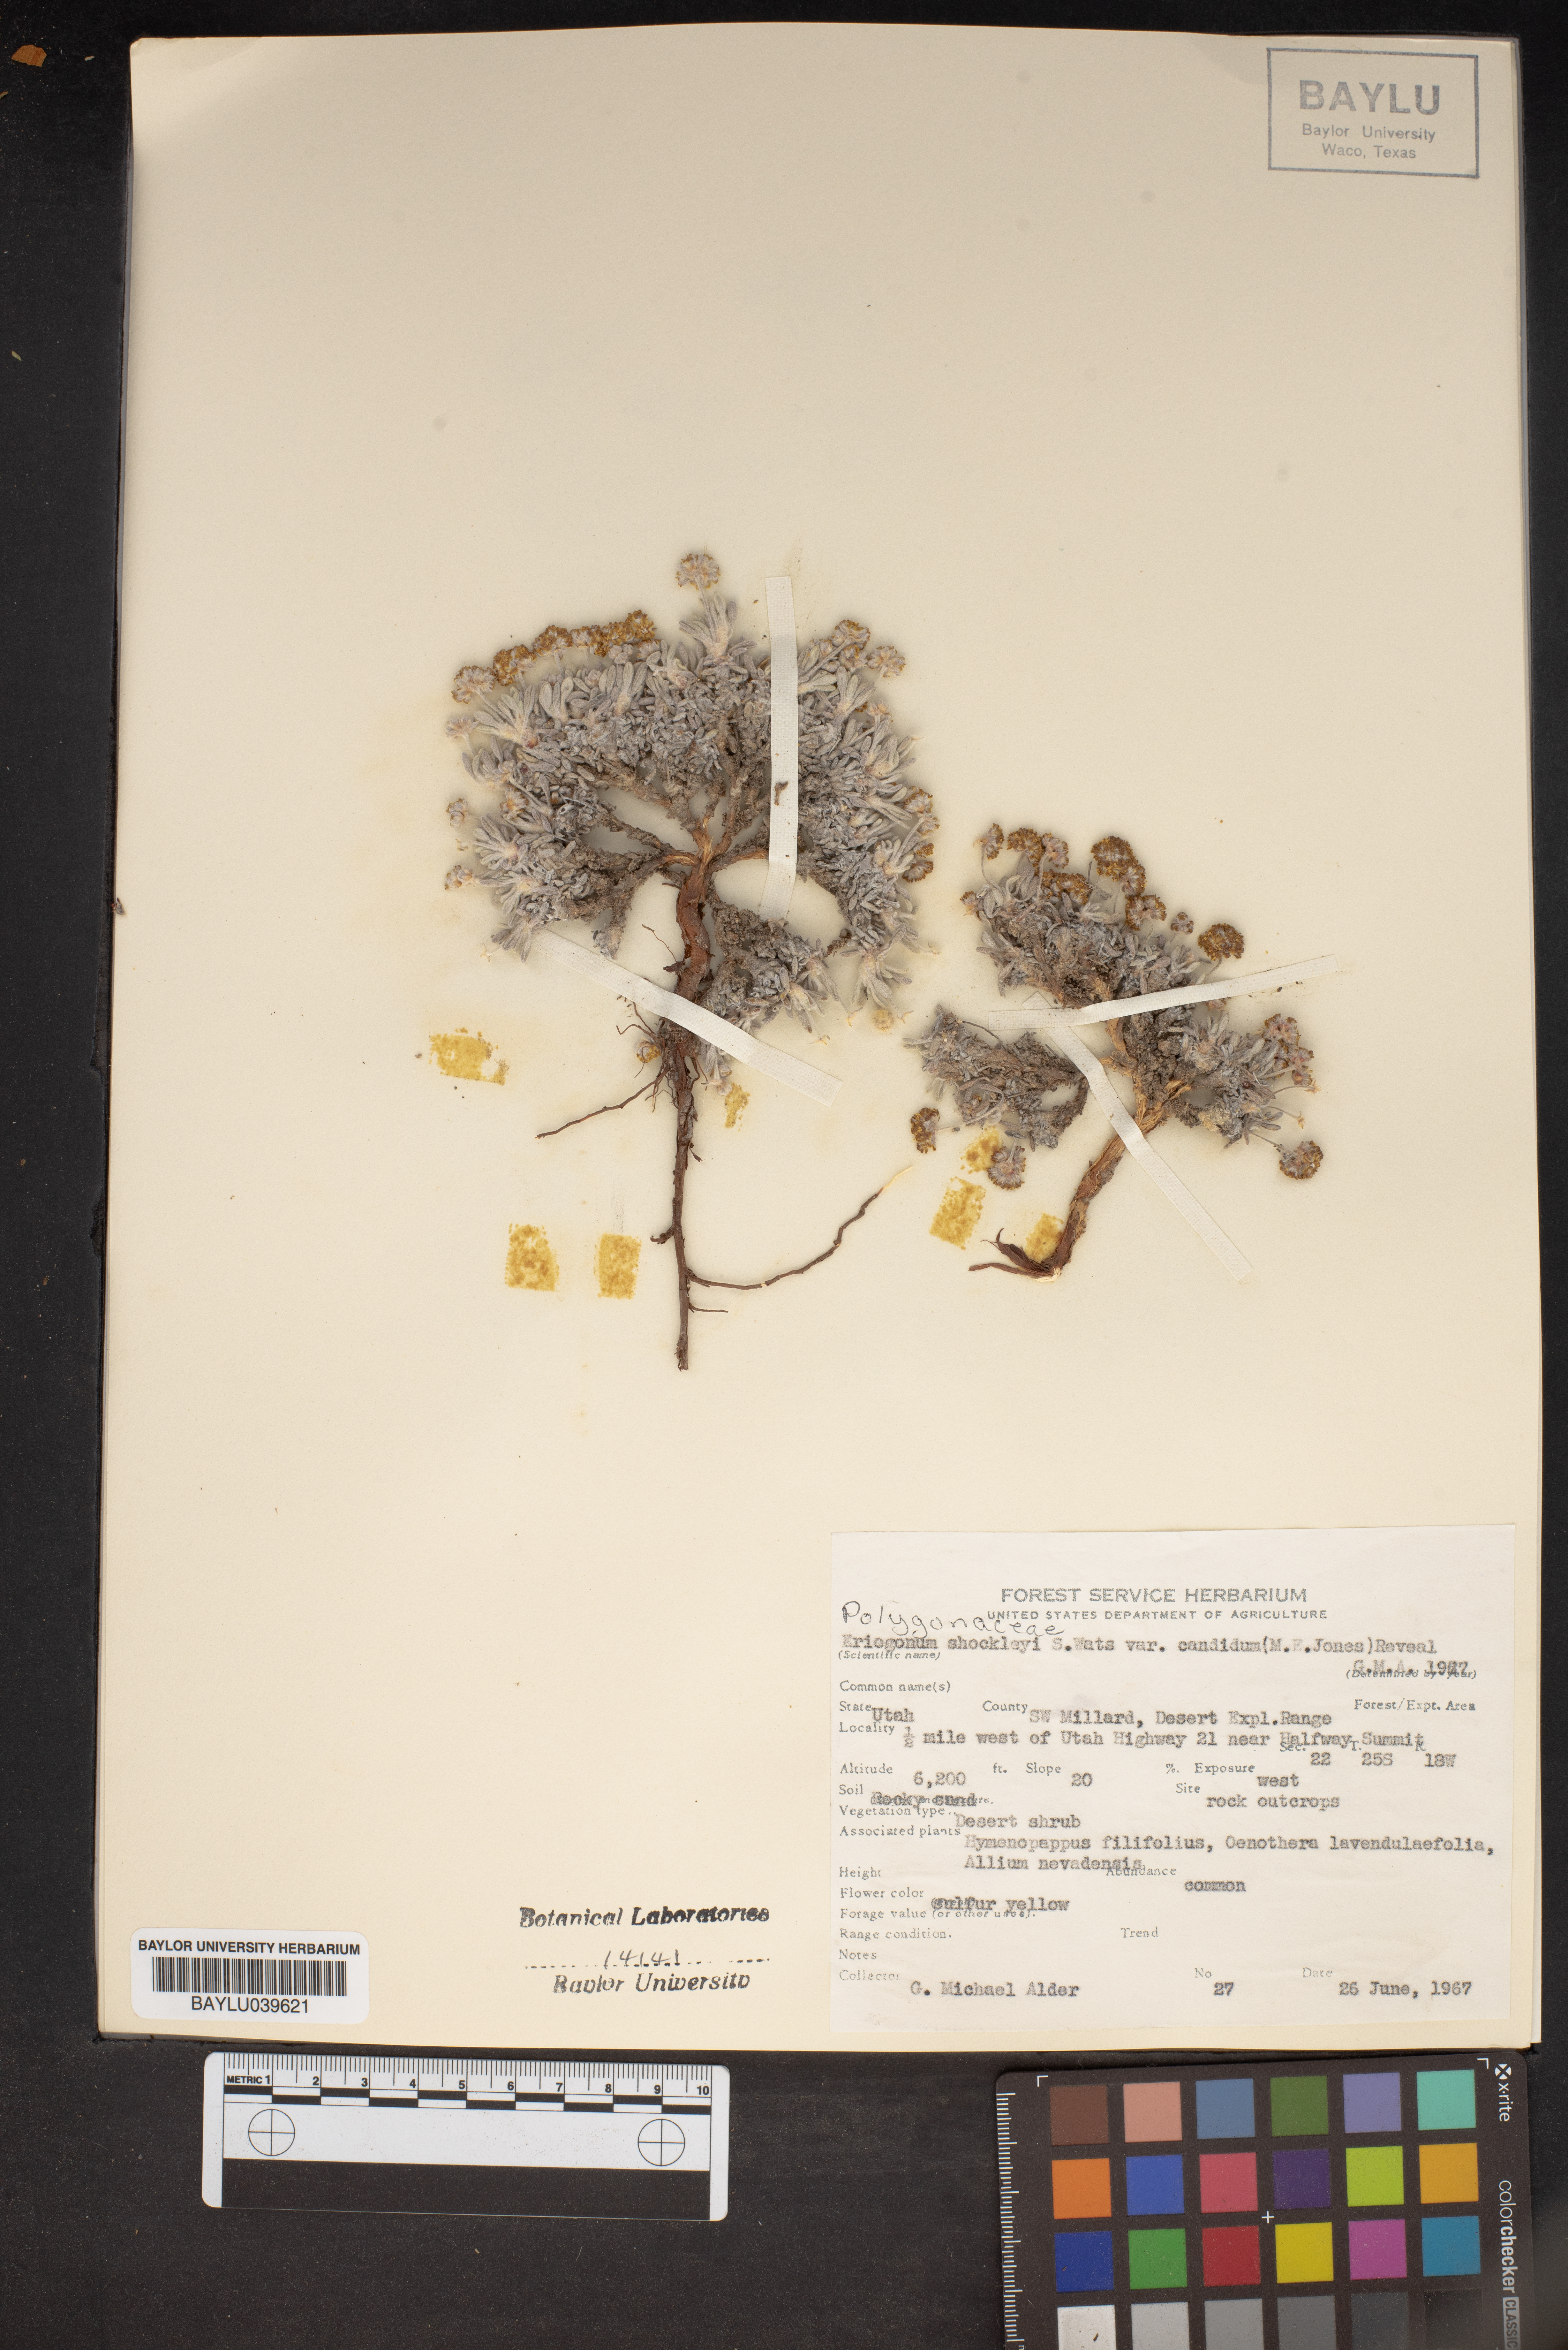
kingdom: Plantae
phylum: Tracheophyta
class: Magnoliopsida
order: Caryophyllales
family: Polygonaceae
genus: Eriogonum
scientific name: Eriogonum shockleyi
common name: Shockley's wild buckwheat
